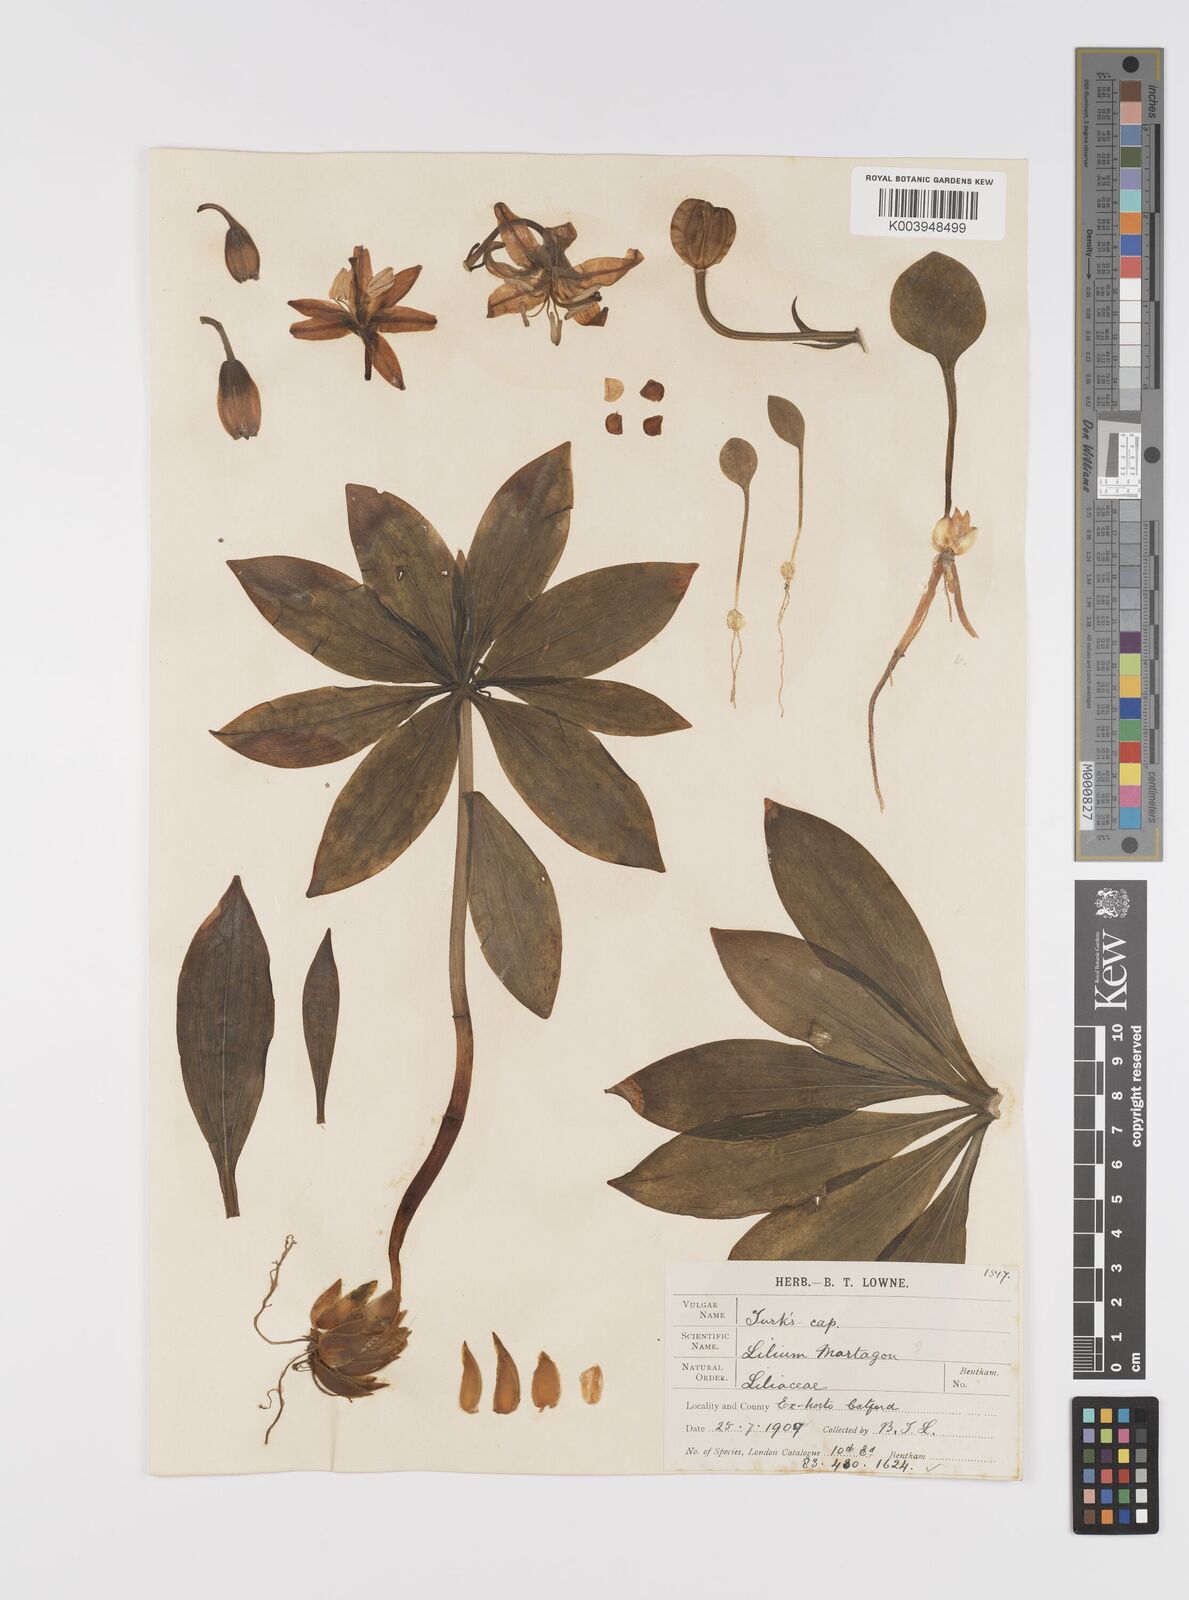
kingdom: Plantae
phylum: Tracheophyta
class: Liliopsida
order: Liliales
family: Liliaceae
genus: Lilium
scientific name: Lilium martagon
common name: Martagon lily
